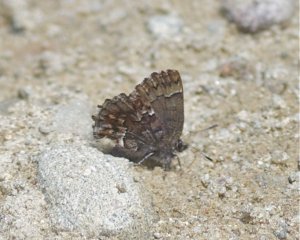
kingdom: Animalia
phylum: Arthropoda
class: Insecta
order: Lepidoptera
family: Lycaenidae
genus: Incisalia
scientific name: Incisalia lanoraieensis
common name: Bog Elfin
